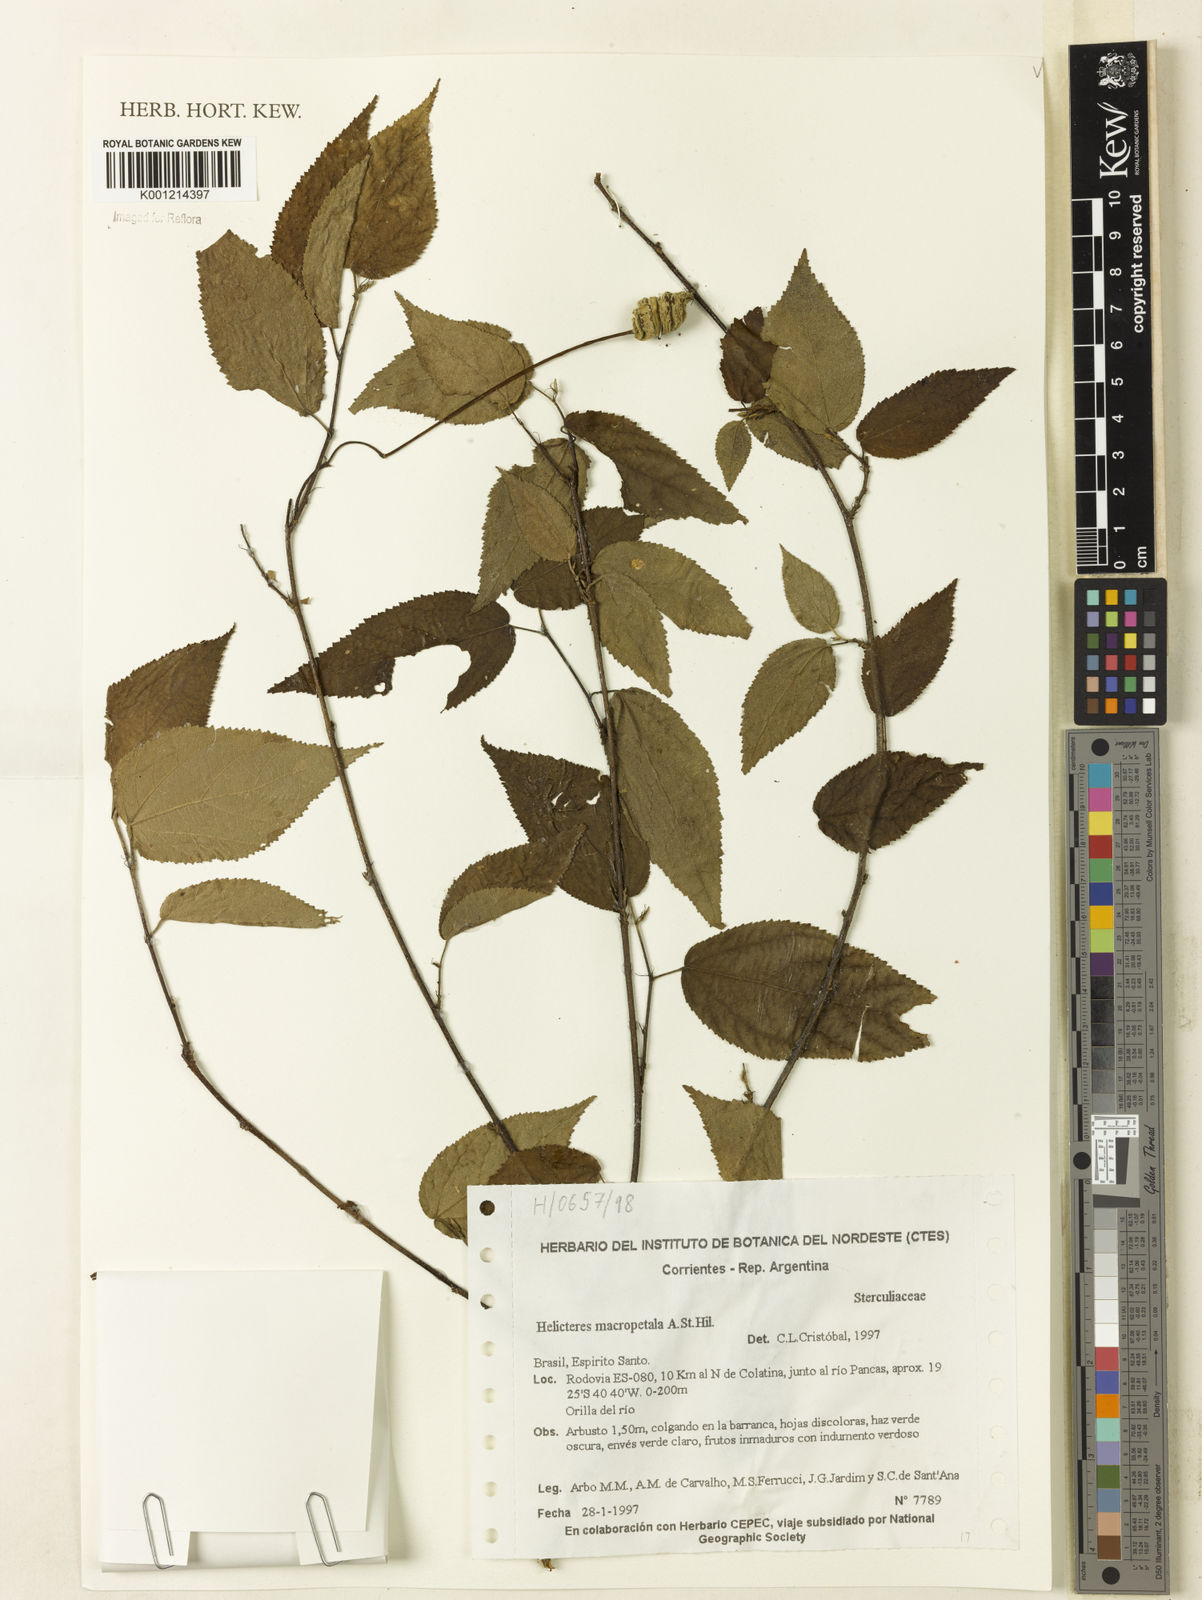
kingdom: Plantae
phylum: Tracheophyta
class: Magnoliopsida
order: Malvales
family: Malvaceae
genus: Helicteres
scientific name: Helicteres
